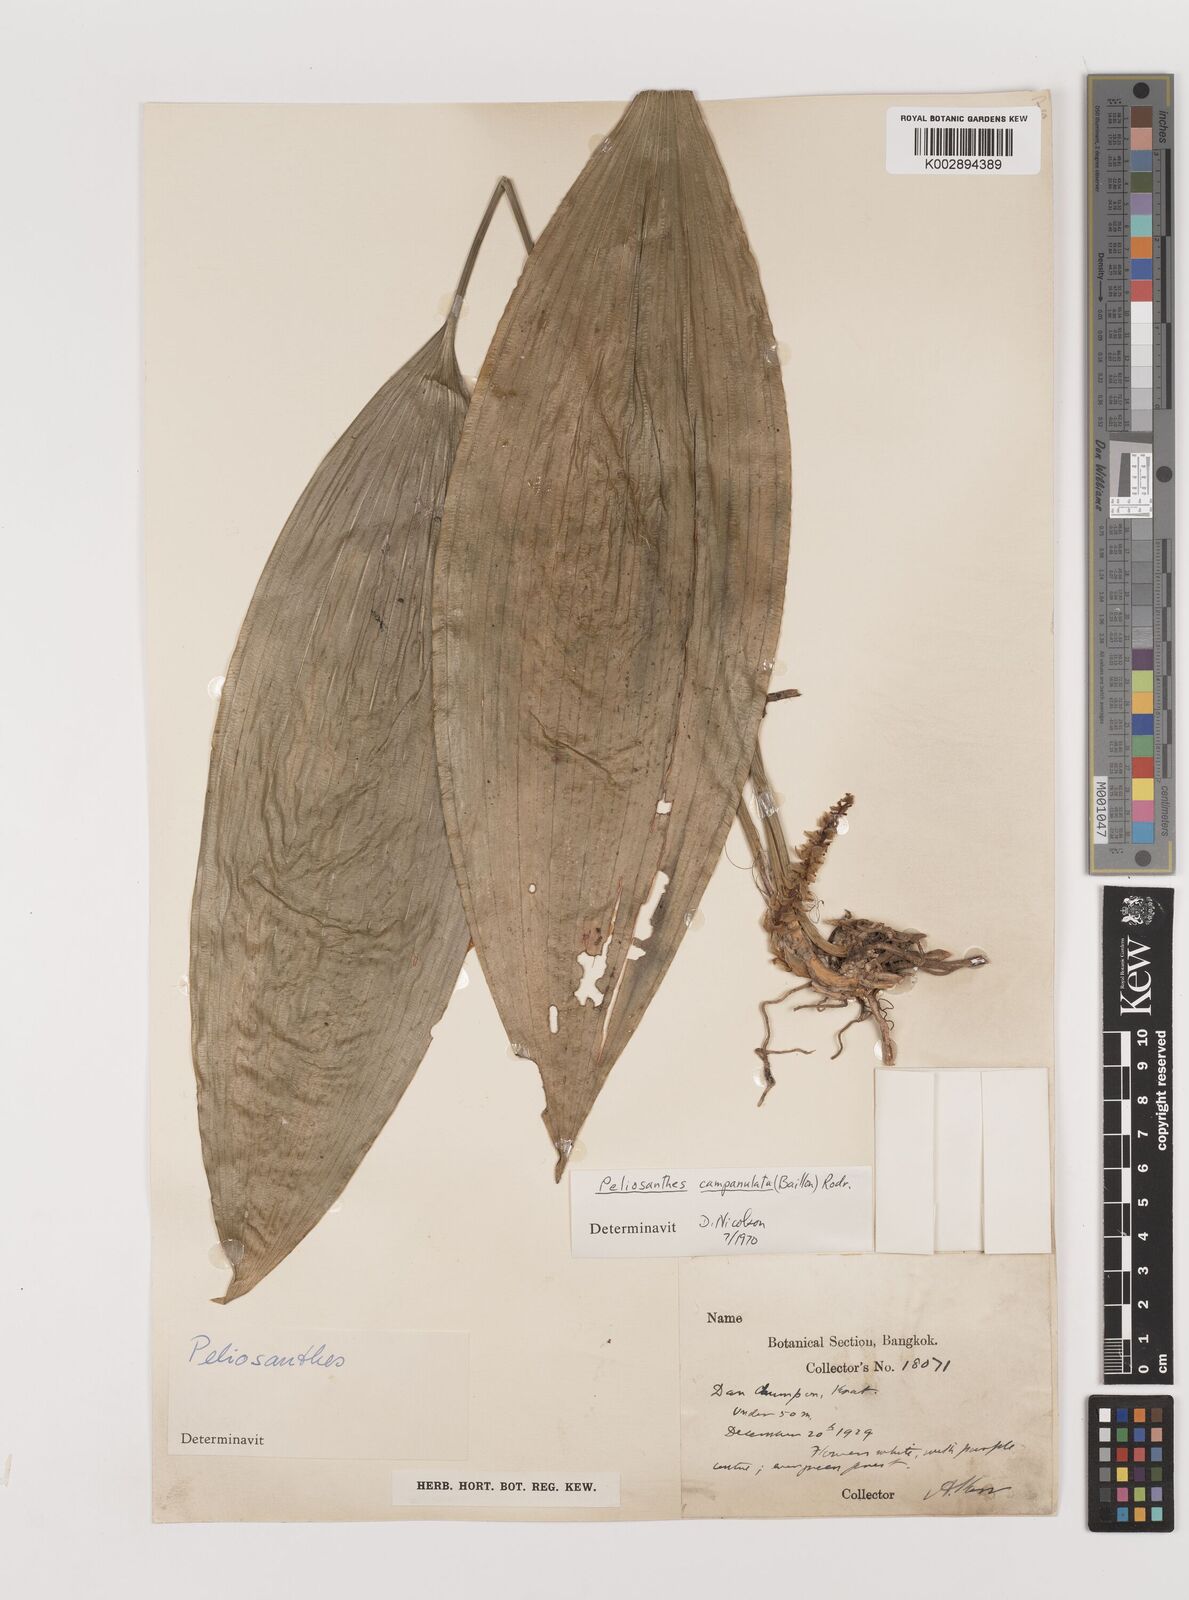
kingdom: Plantae
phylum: Tracheophyta
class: Liliopsida
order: Asparagales
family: Asparagaceae
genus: Peliosanthes
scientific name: Peliosanthes teta
